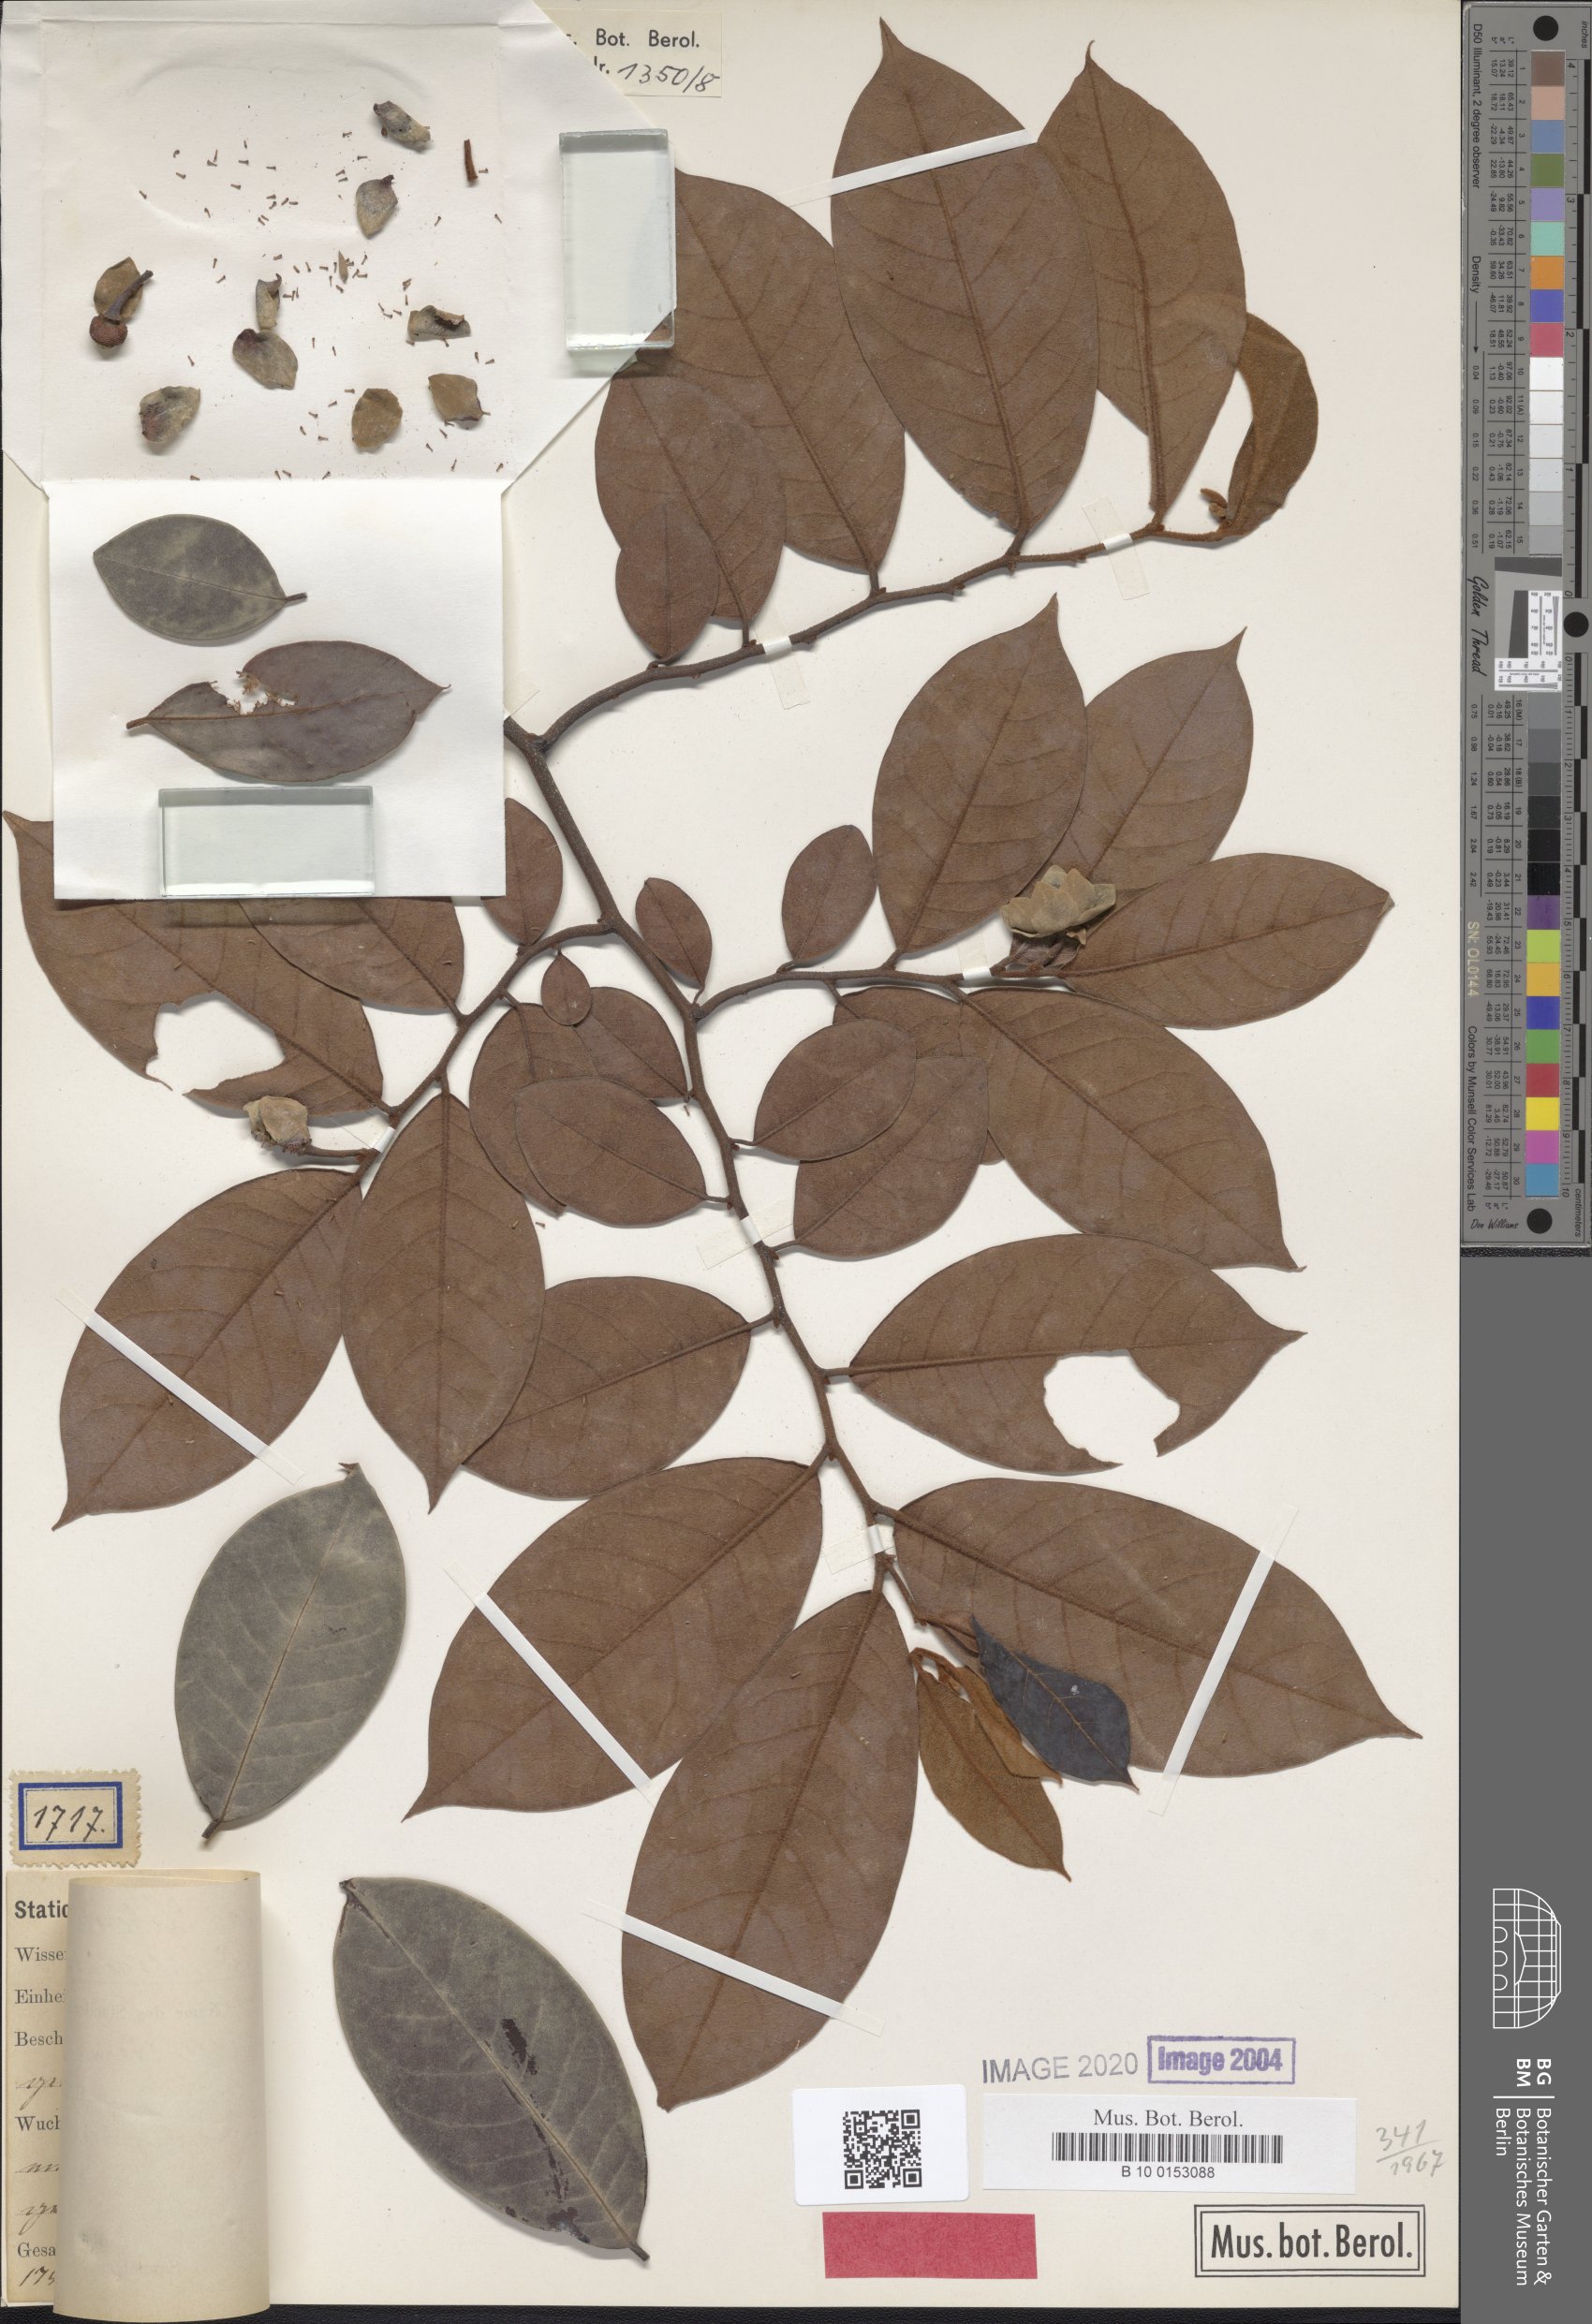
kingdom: Plantae
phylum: Tracheophyta
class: Magnoliopsida
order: Magnoliales
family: Annonaceae
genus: Uvaria
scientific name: Uvaria dinklagei
